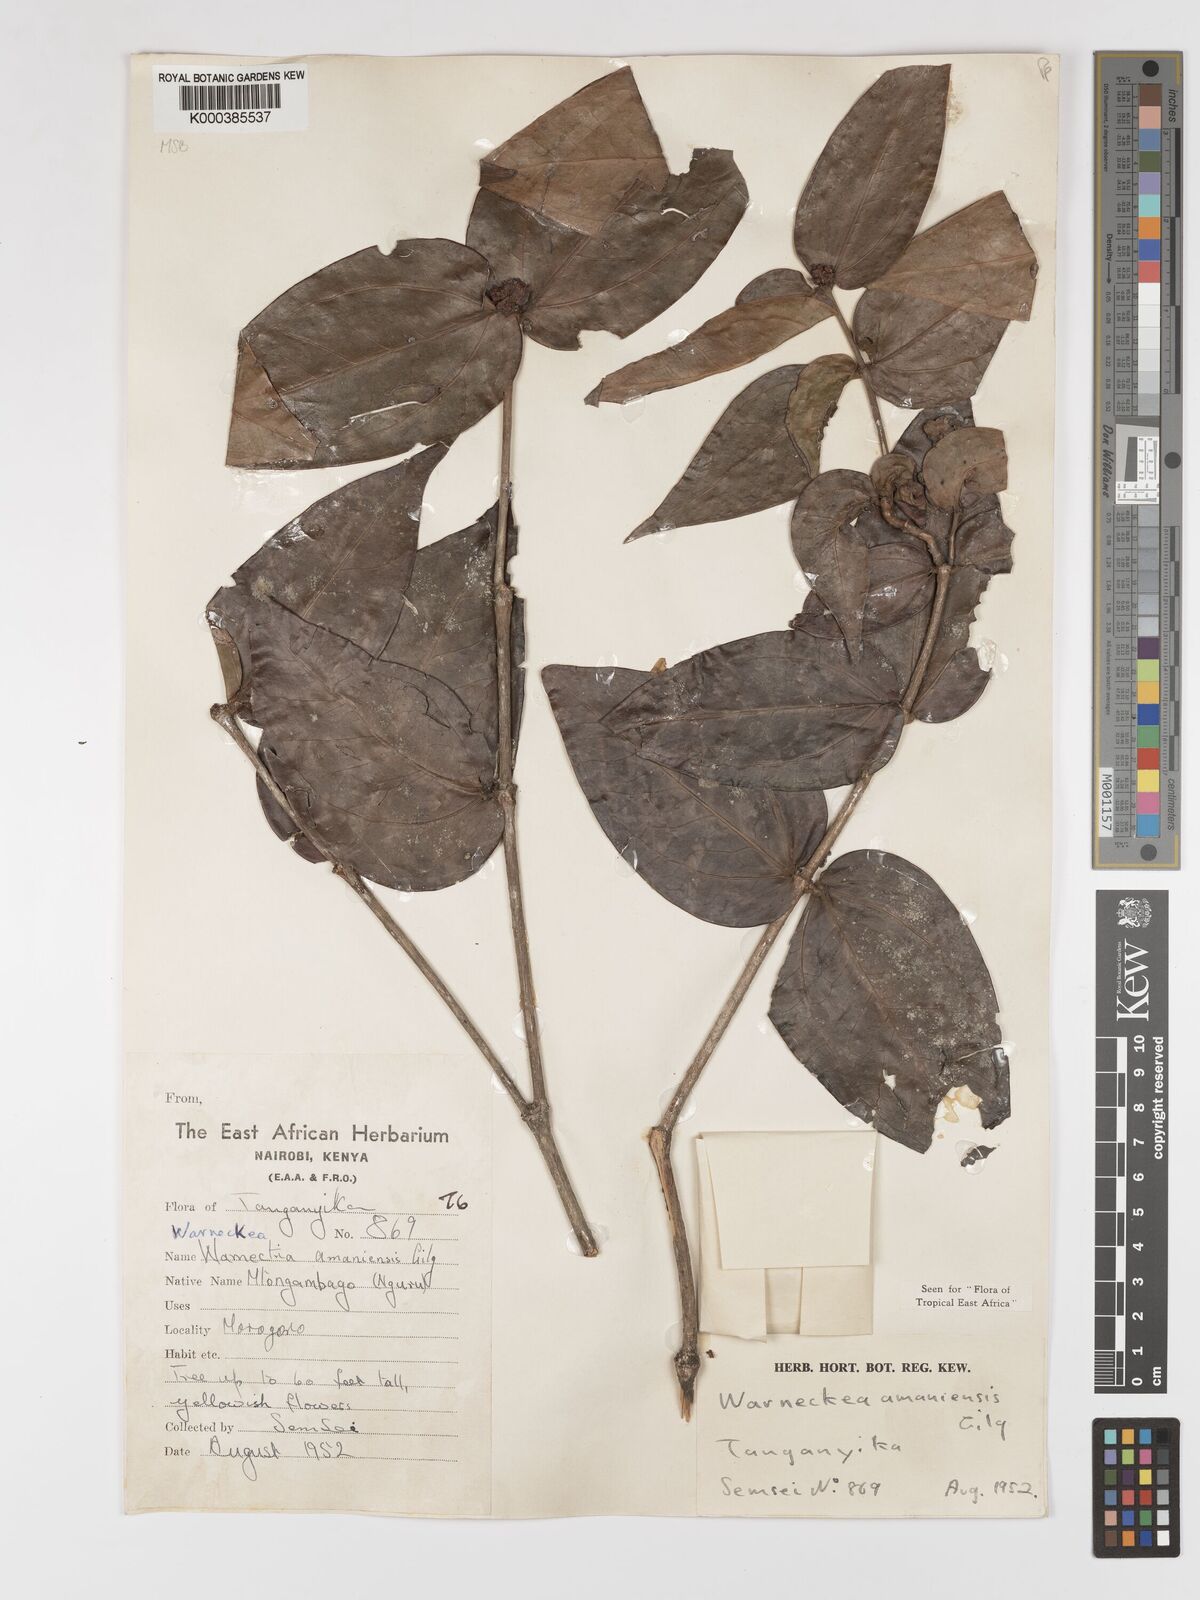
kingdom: Plantae
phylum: Tracheophyta
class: Magnoliopsida
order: Myrtales
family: Melastomataceae
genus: Warneckea
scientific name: Warneckea amaniensis
